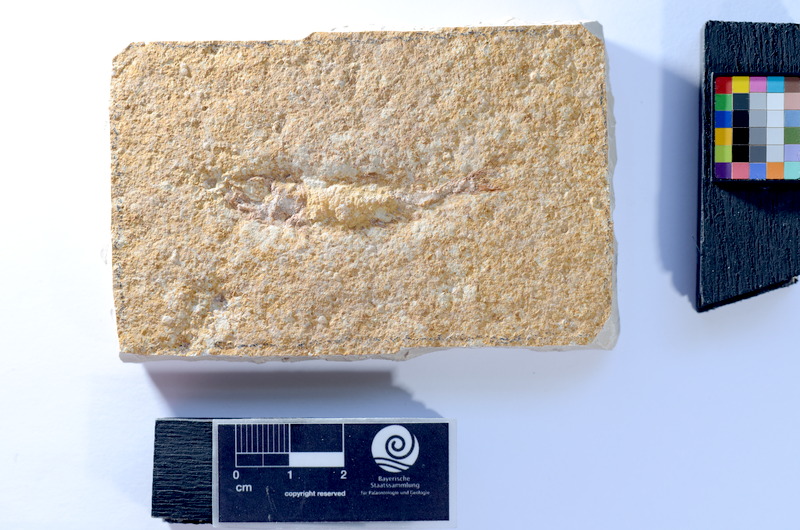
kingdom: Animalia
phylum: Chordata
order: Salmoniformes
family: Orthogonikleithridae
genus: Leptolepides
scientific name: Leptolepides
